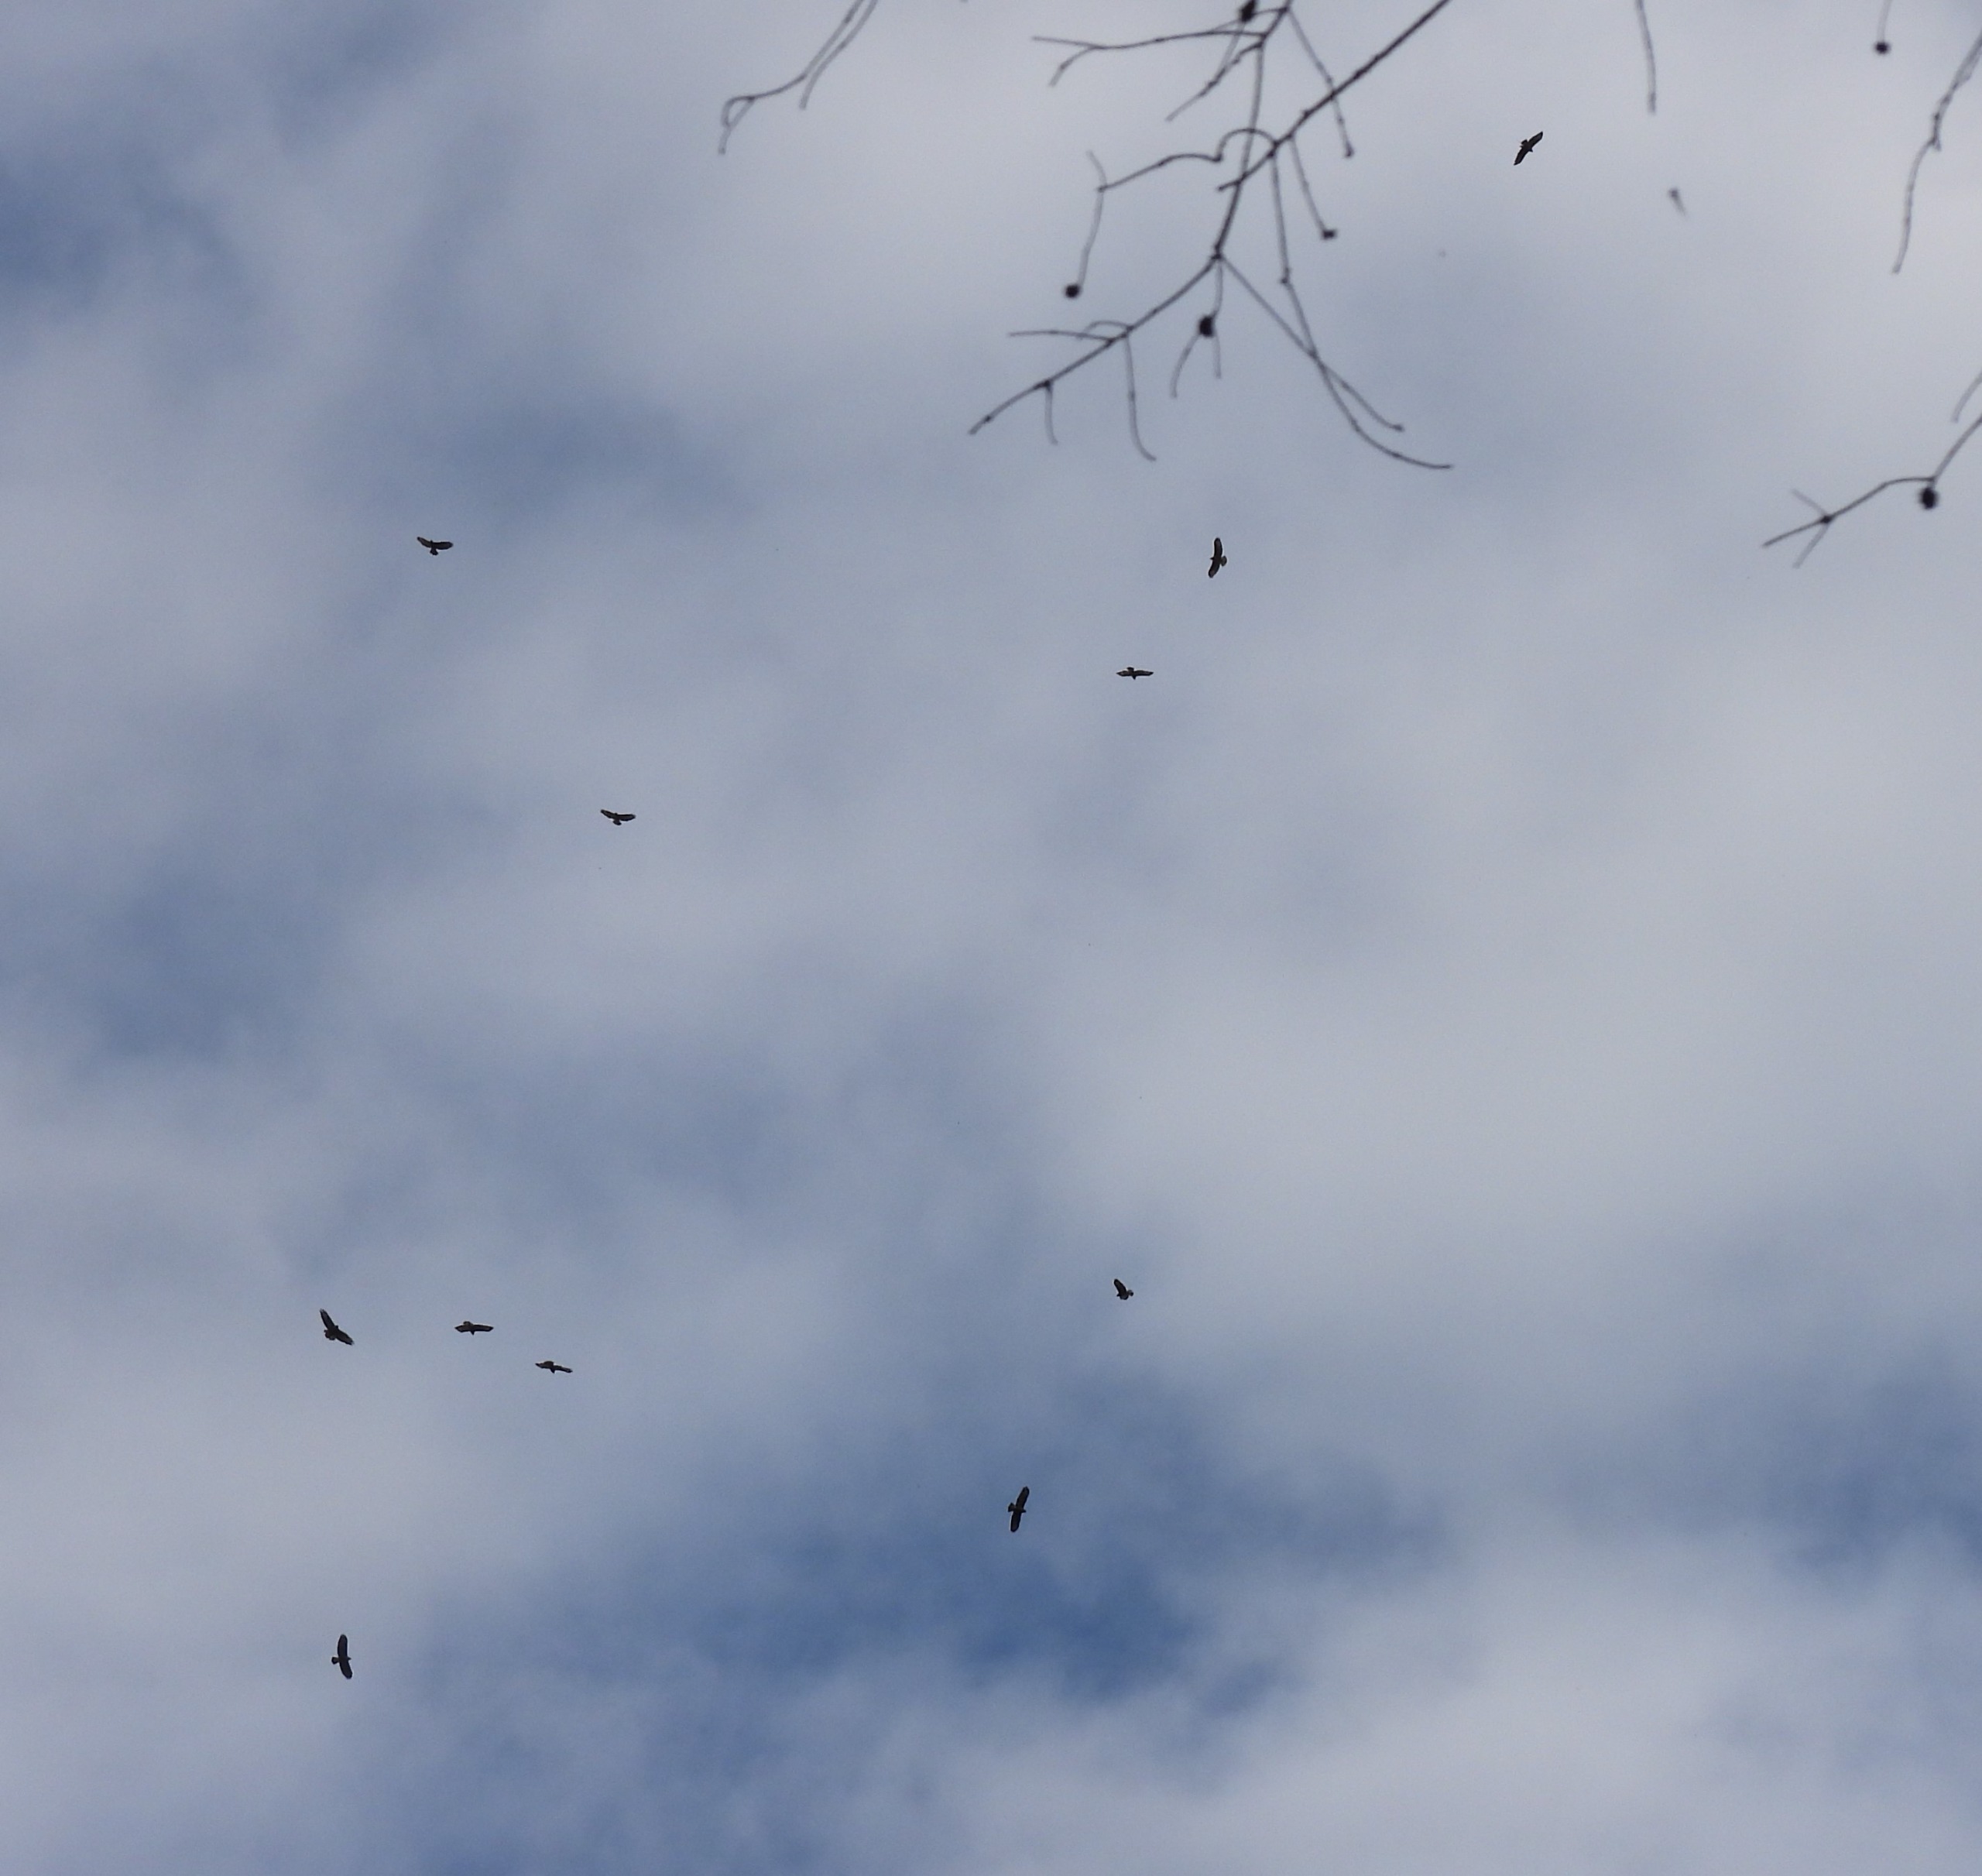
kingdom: Animalia
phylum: Chordata
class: Aves
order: Accipitriformes
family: Accipitridae
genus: Buteo
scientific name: Buteo buteo
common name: Musvåge
